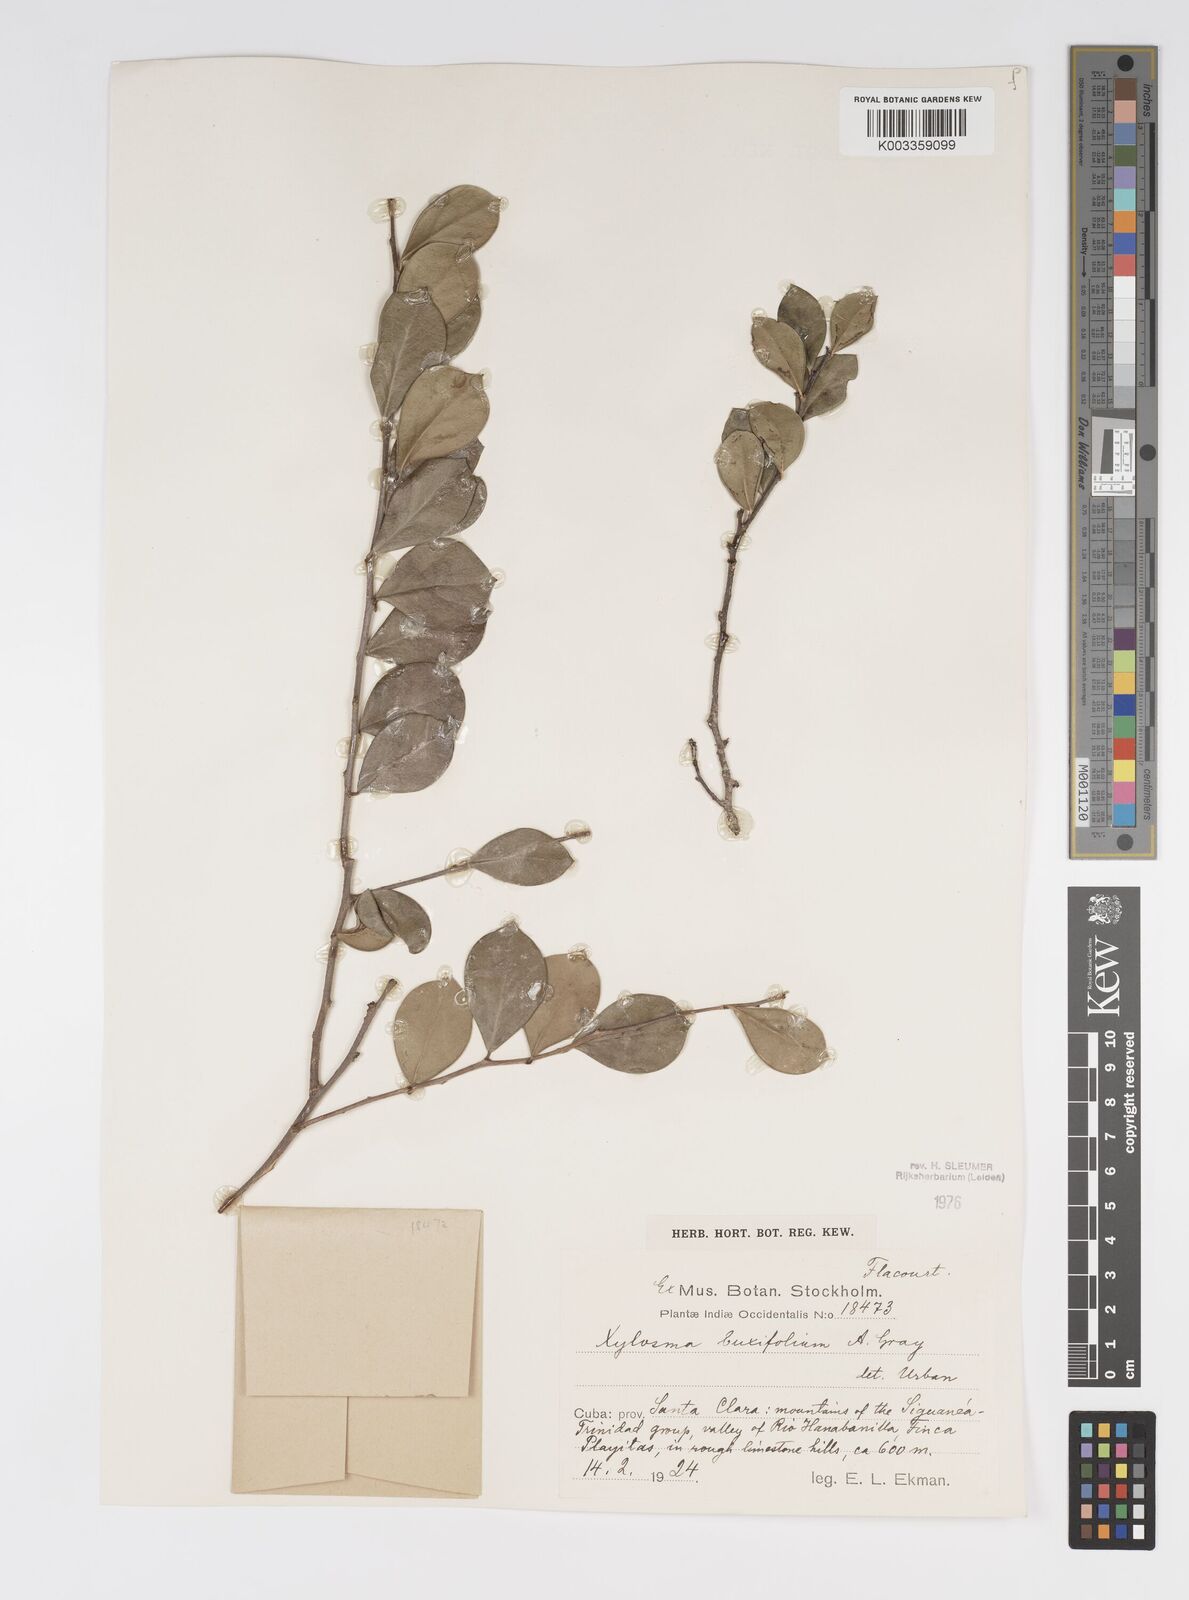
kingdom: Plantae
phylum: Tracheophyta
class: Magnoliopsida
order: Malpighiales
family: Salicaceae
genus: Xylosma
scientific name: Xylosma buxifolia
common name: Cockspur
